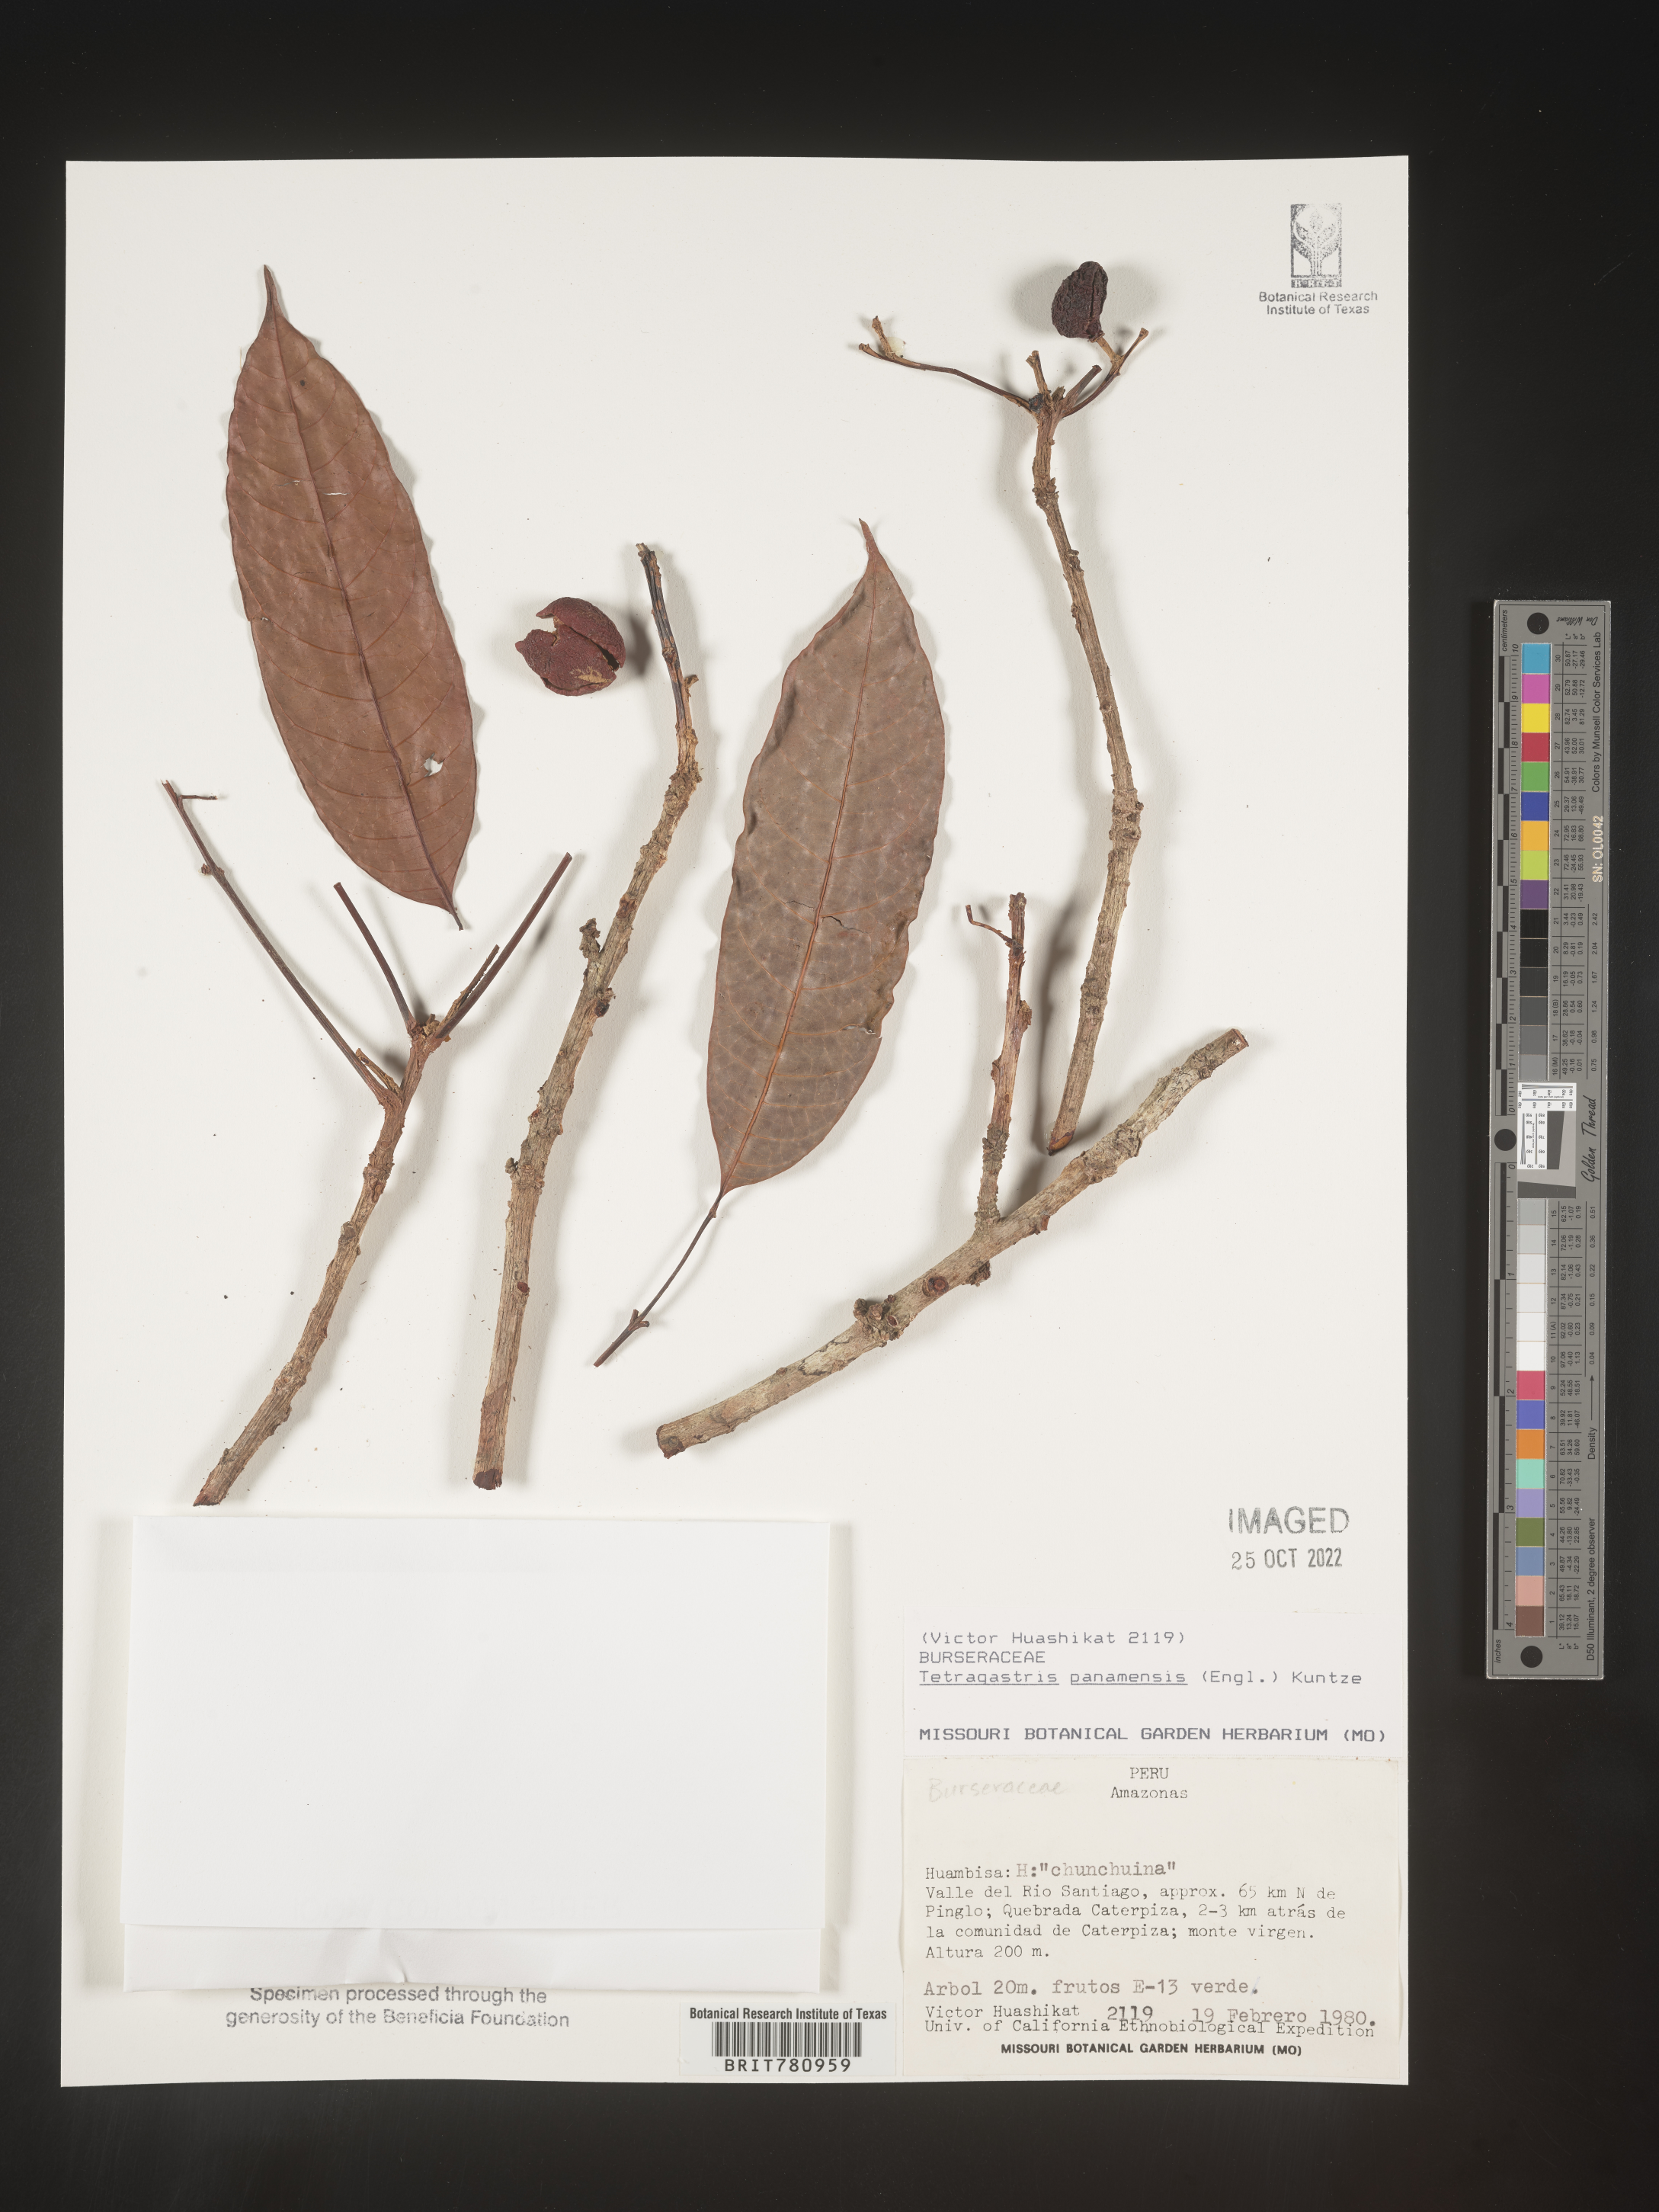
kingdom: Plantae
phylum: Tracheophyta
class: Magnoliopsida
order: Sapindales
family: Burseraceae
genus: Tetragastris
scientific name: Tetragastris
